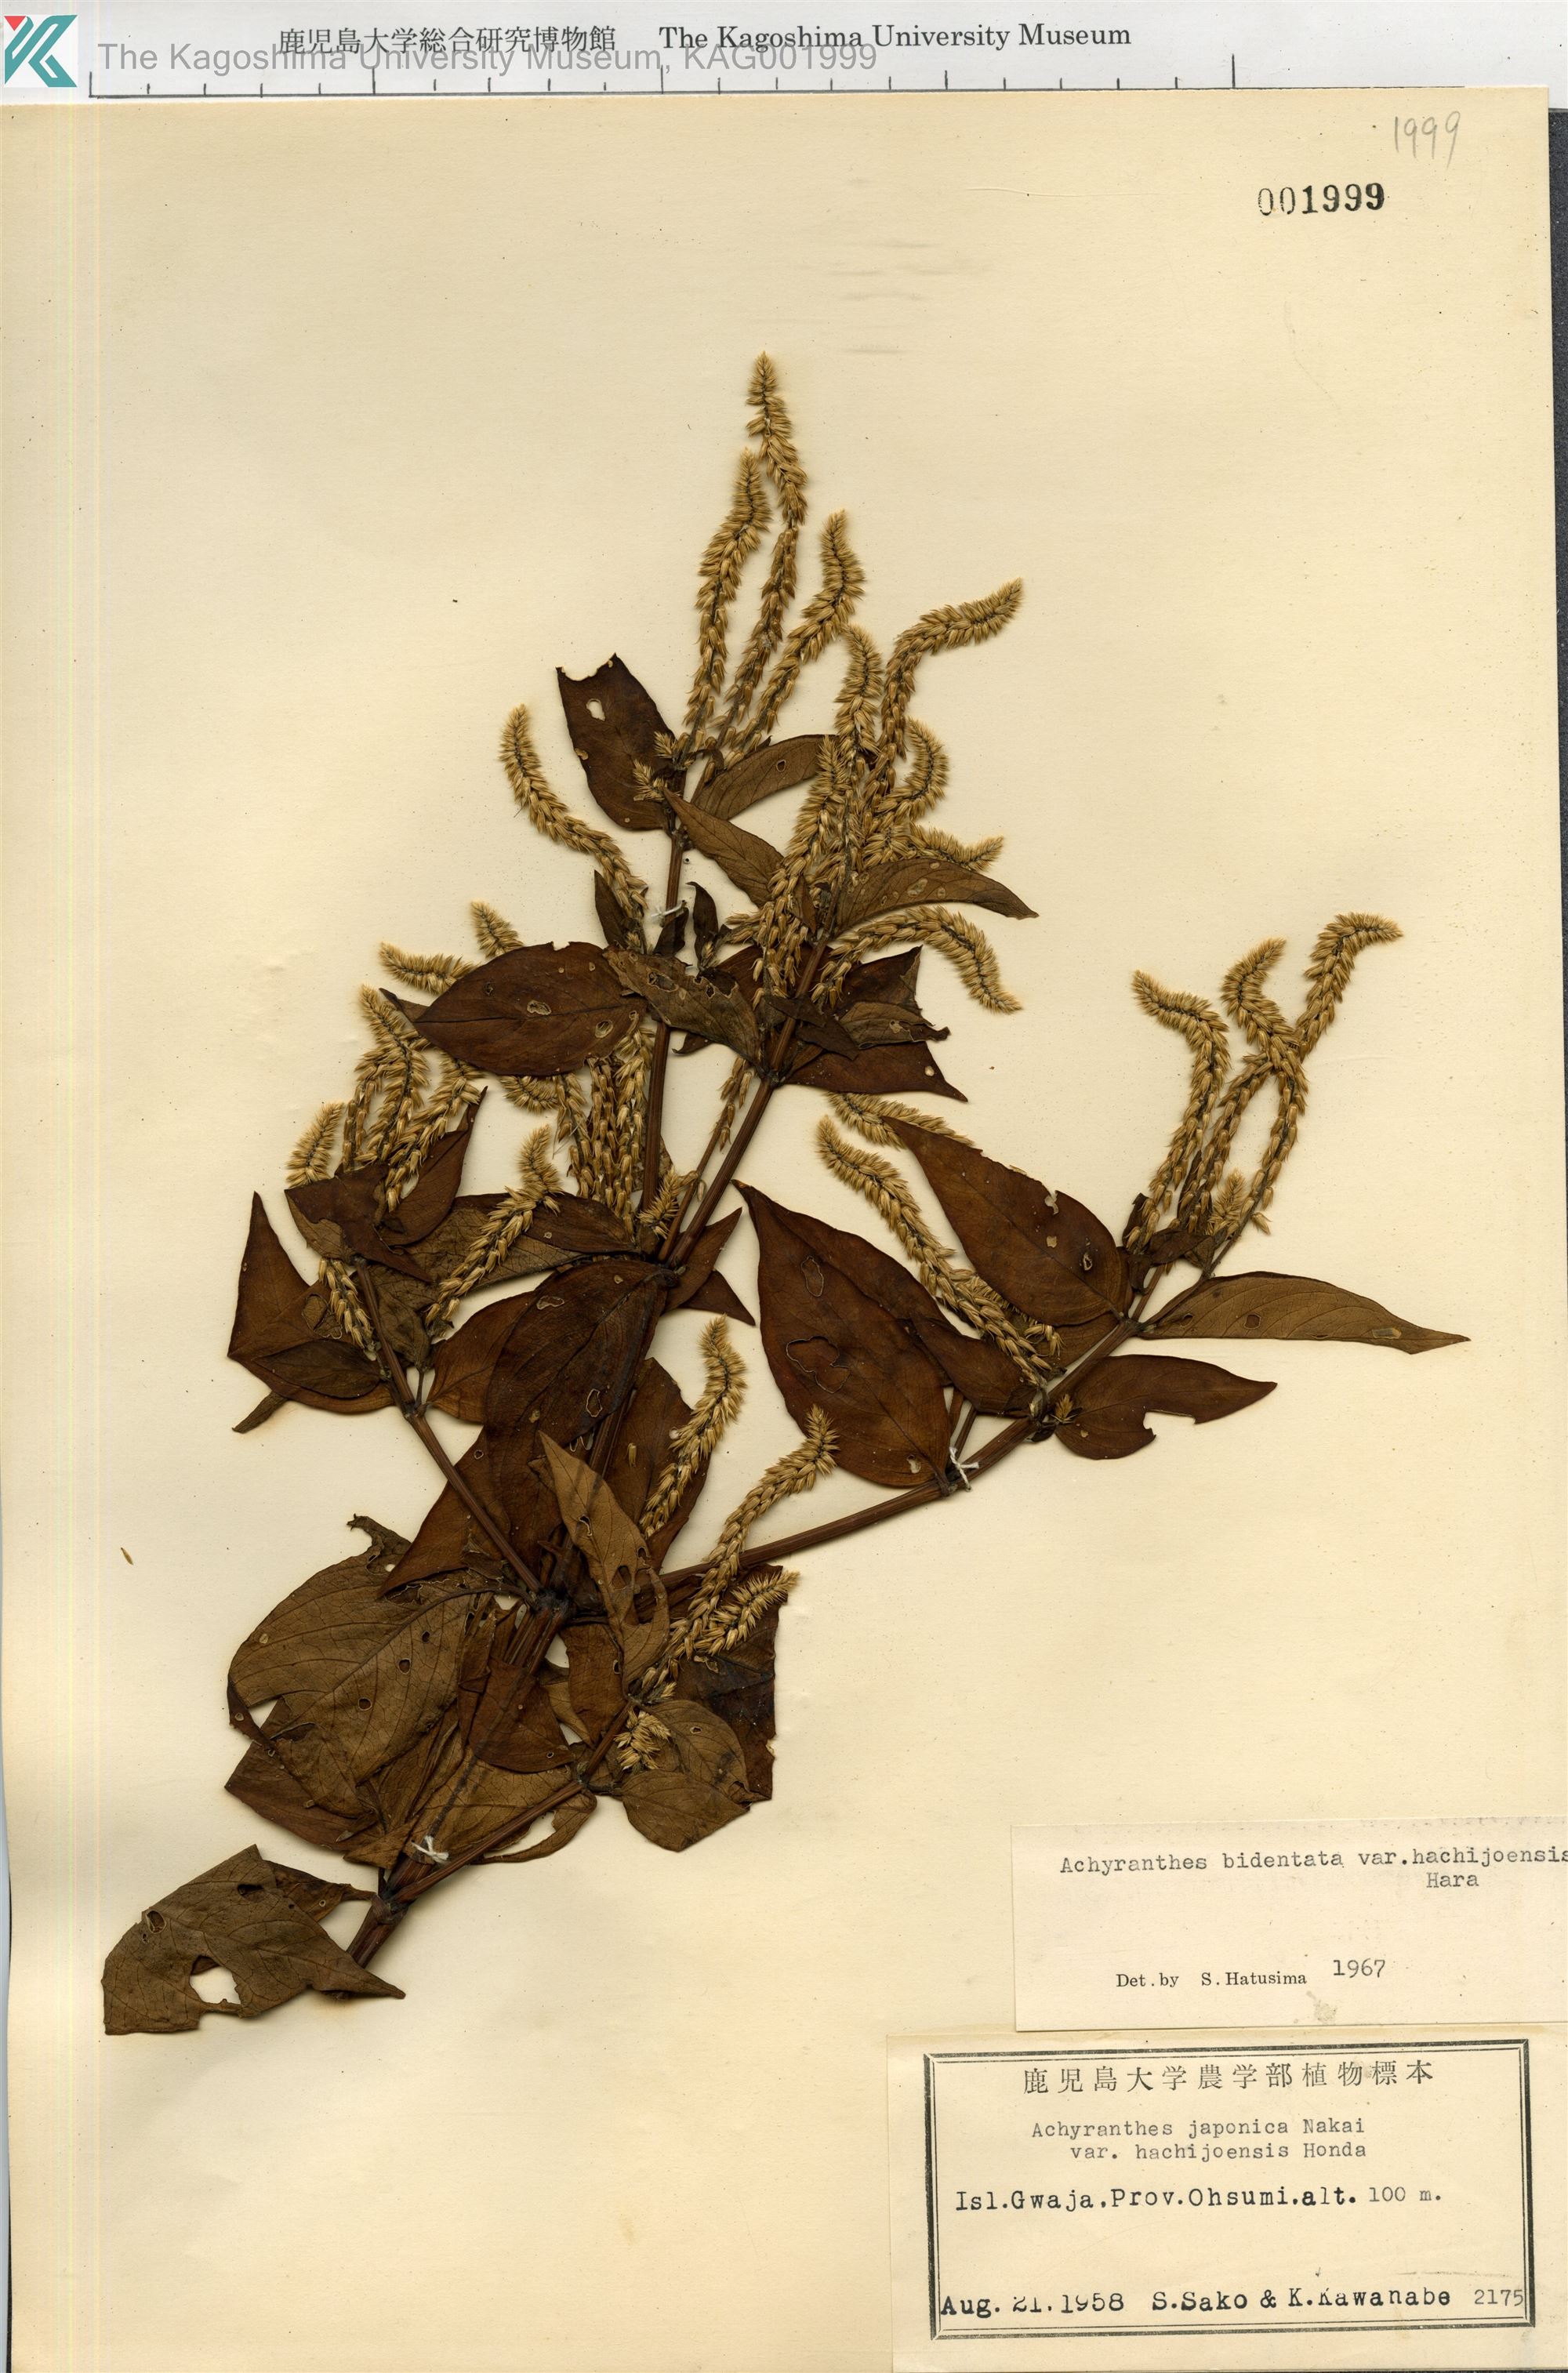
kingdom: Plantae
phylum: Tracheophyta
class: Magnoliopsida
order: Caryophyllales
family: Amaranthaceae
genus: Achyranthes
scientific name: Achyranthes bidentata
